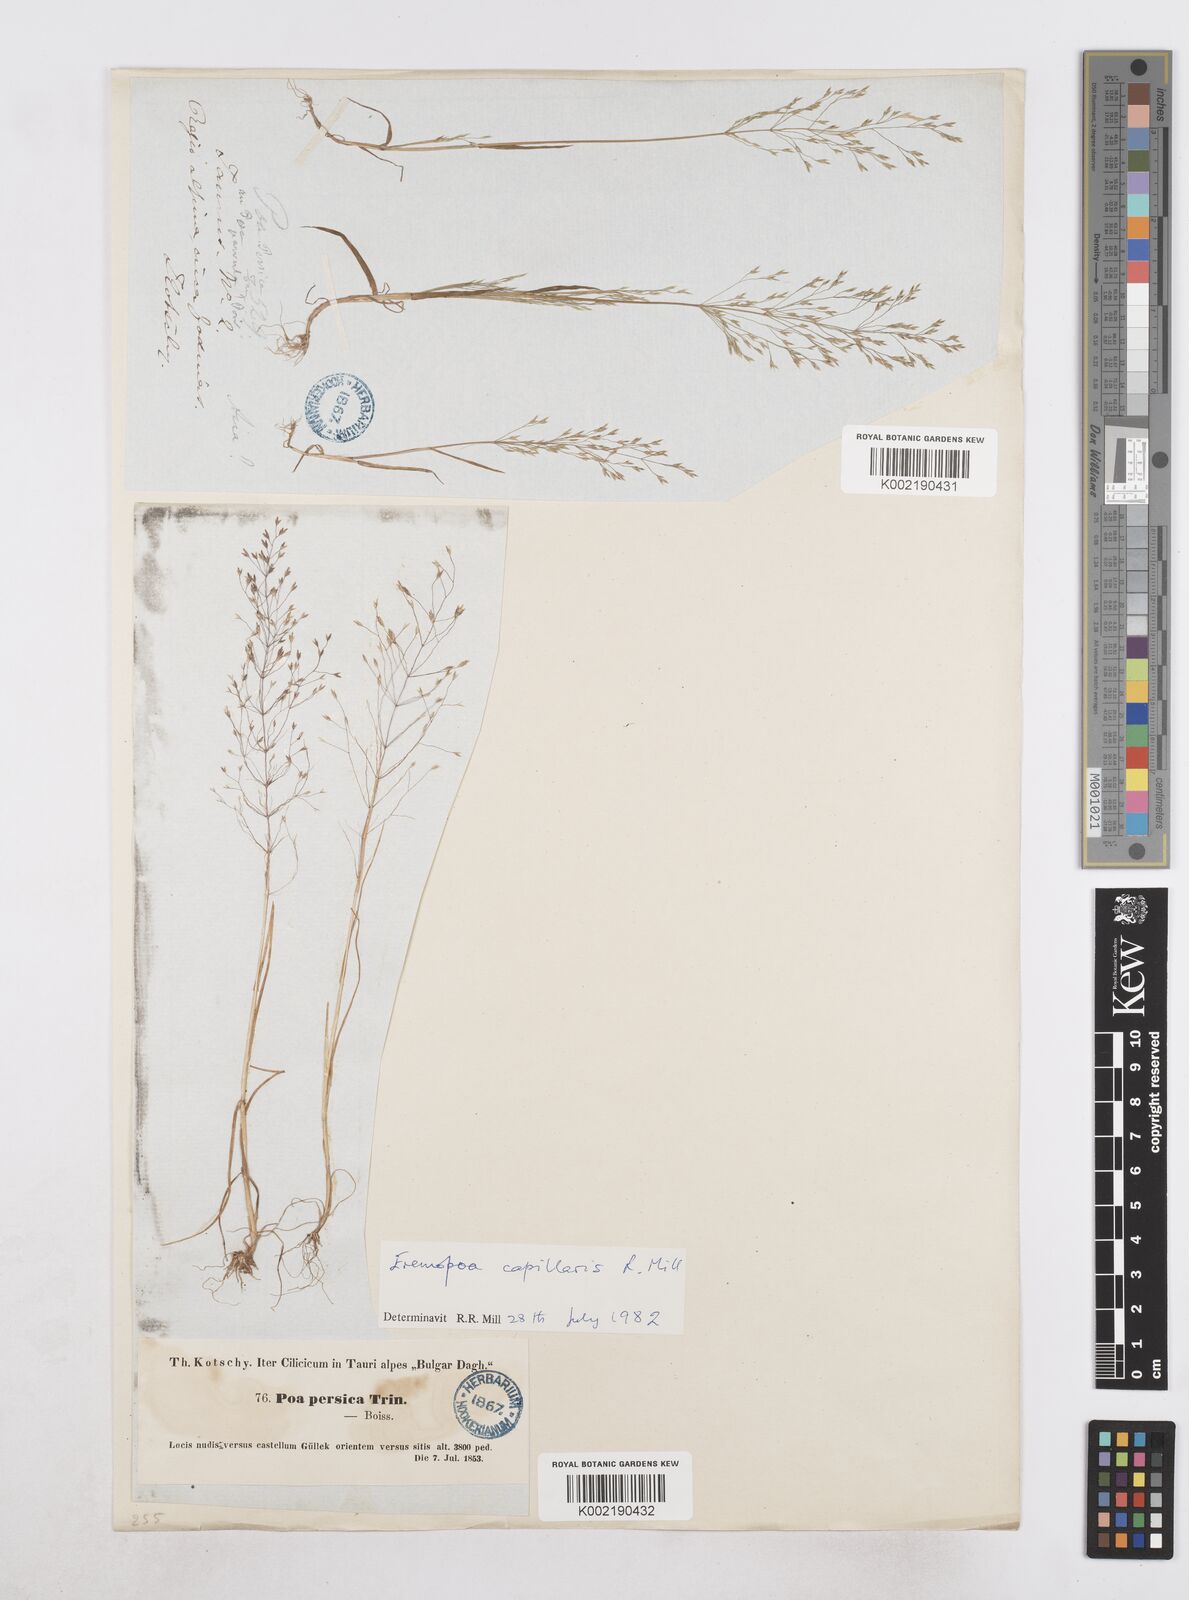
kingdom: Plantae
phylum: Tracheophyta
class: Liliopsida
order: Poales
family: Poaceae
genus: Poa
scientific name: Poa diaphora
